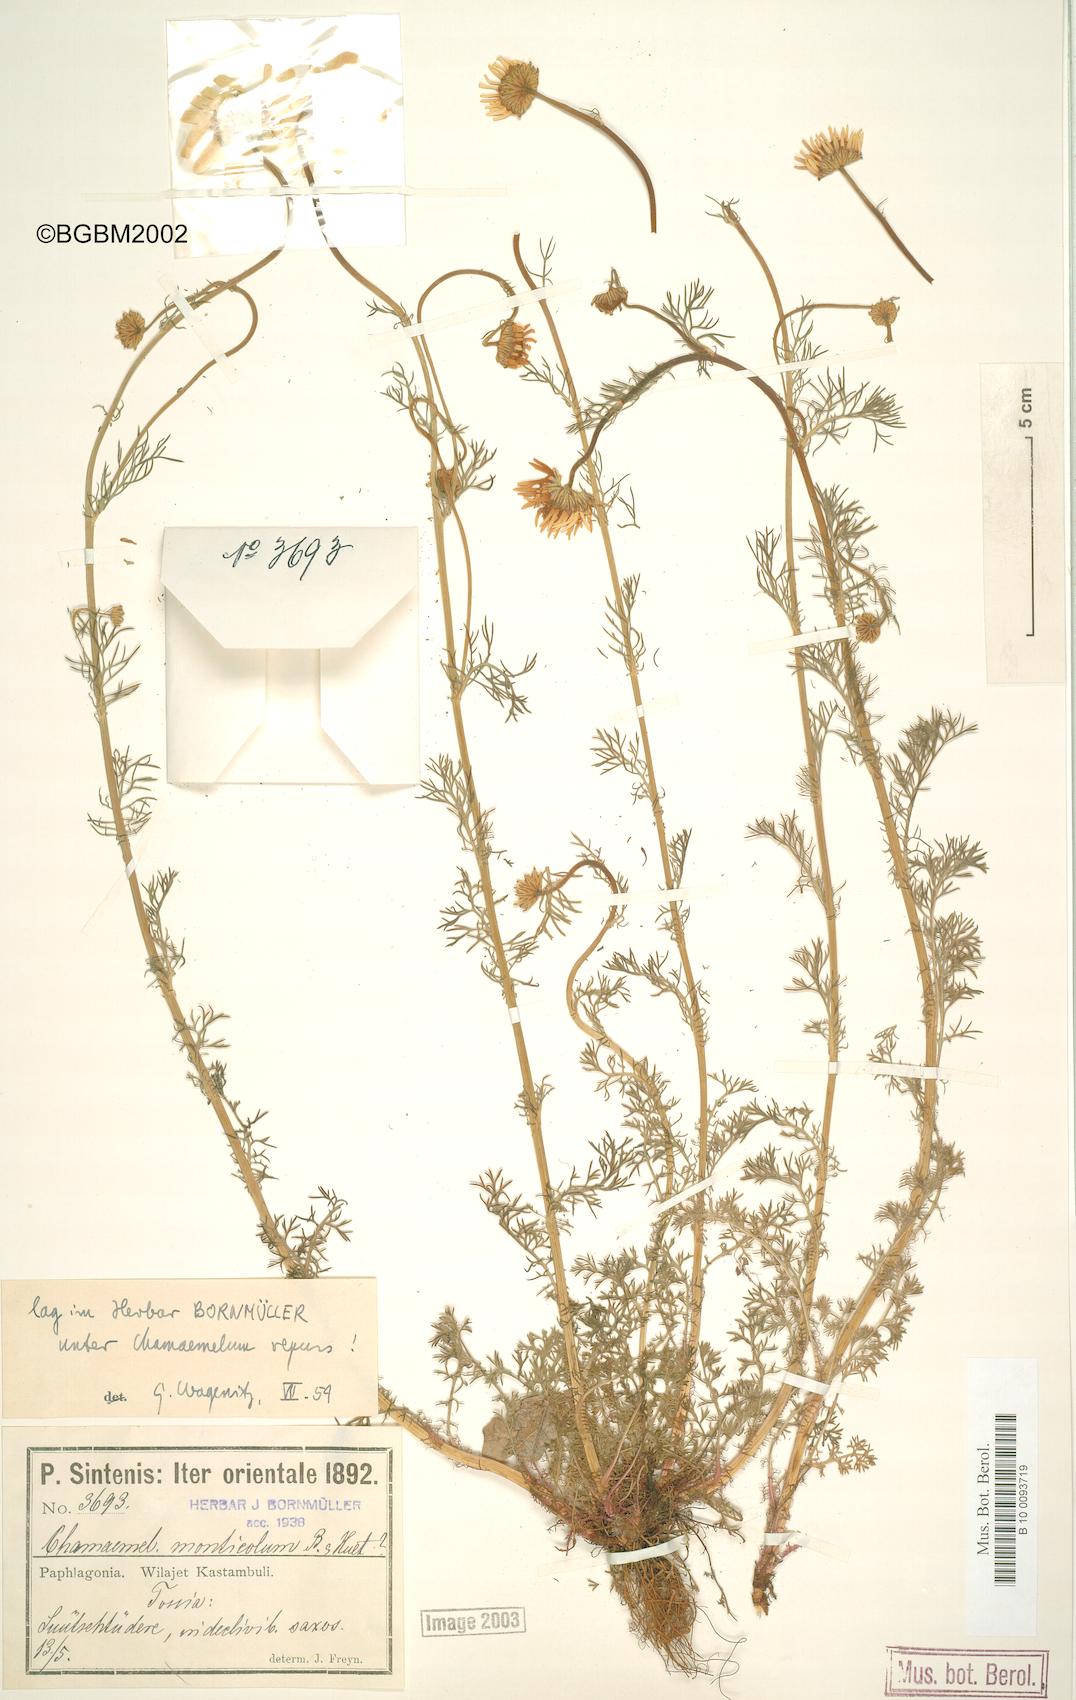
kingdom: Plantae
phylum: Tracheophyta
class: Magnoliopsida
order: Asterales
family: Asteraceae
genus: Tripleurospermum
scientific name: Tripleurospermum repens
